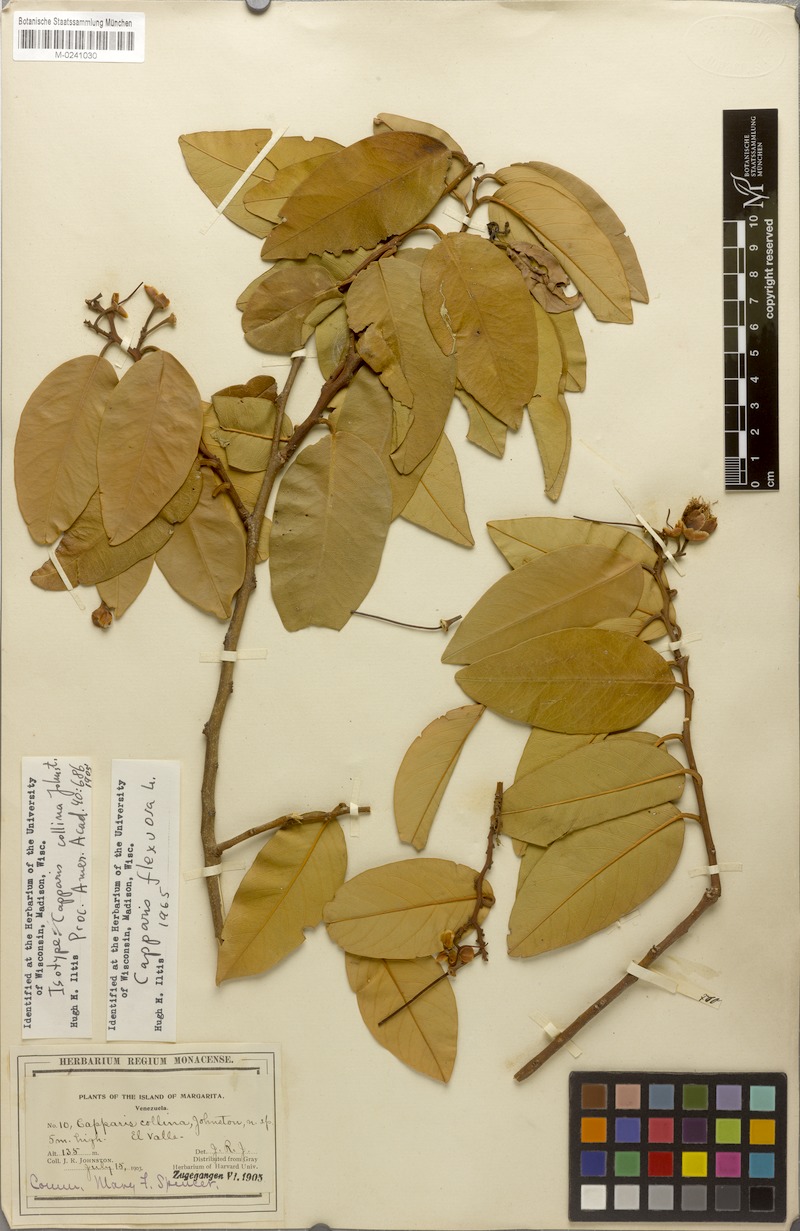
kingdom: Plantae
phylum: Tracheophyta
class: Magnoliopsida
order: Brassicales
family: Capparaceae
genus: Cynophalla
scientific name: Cynophalla hastata
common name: Broadleaf cape
